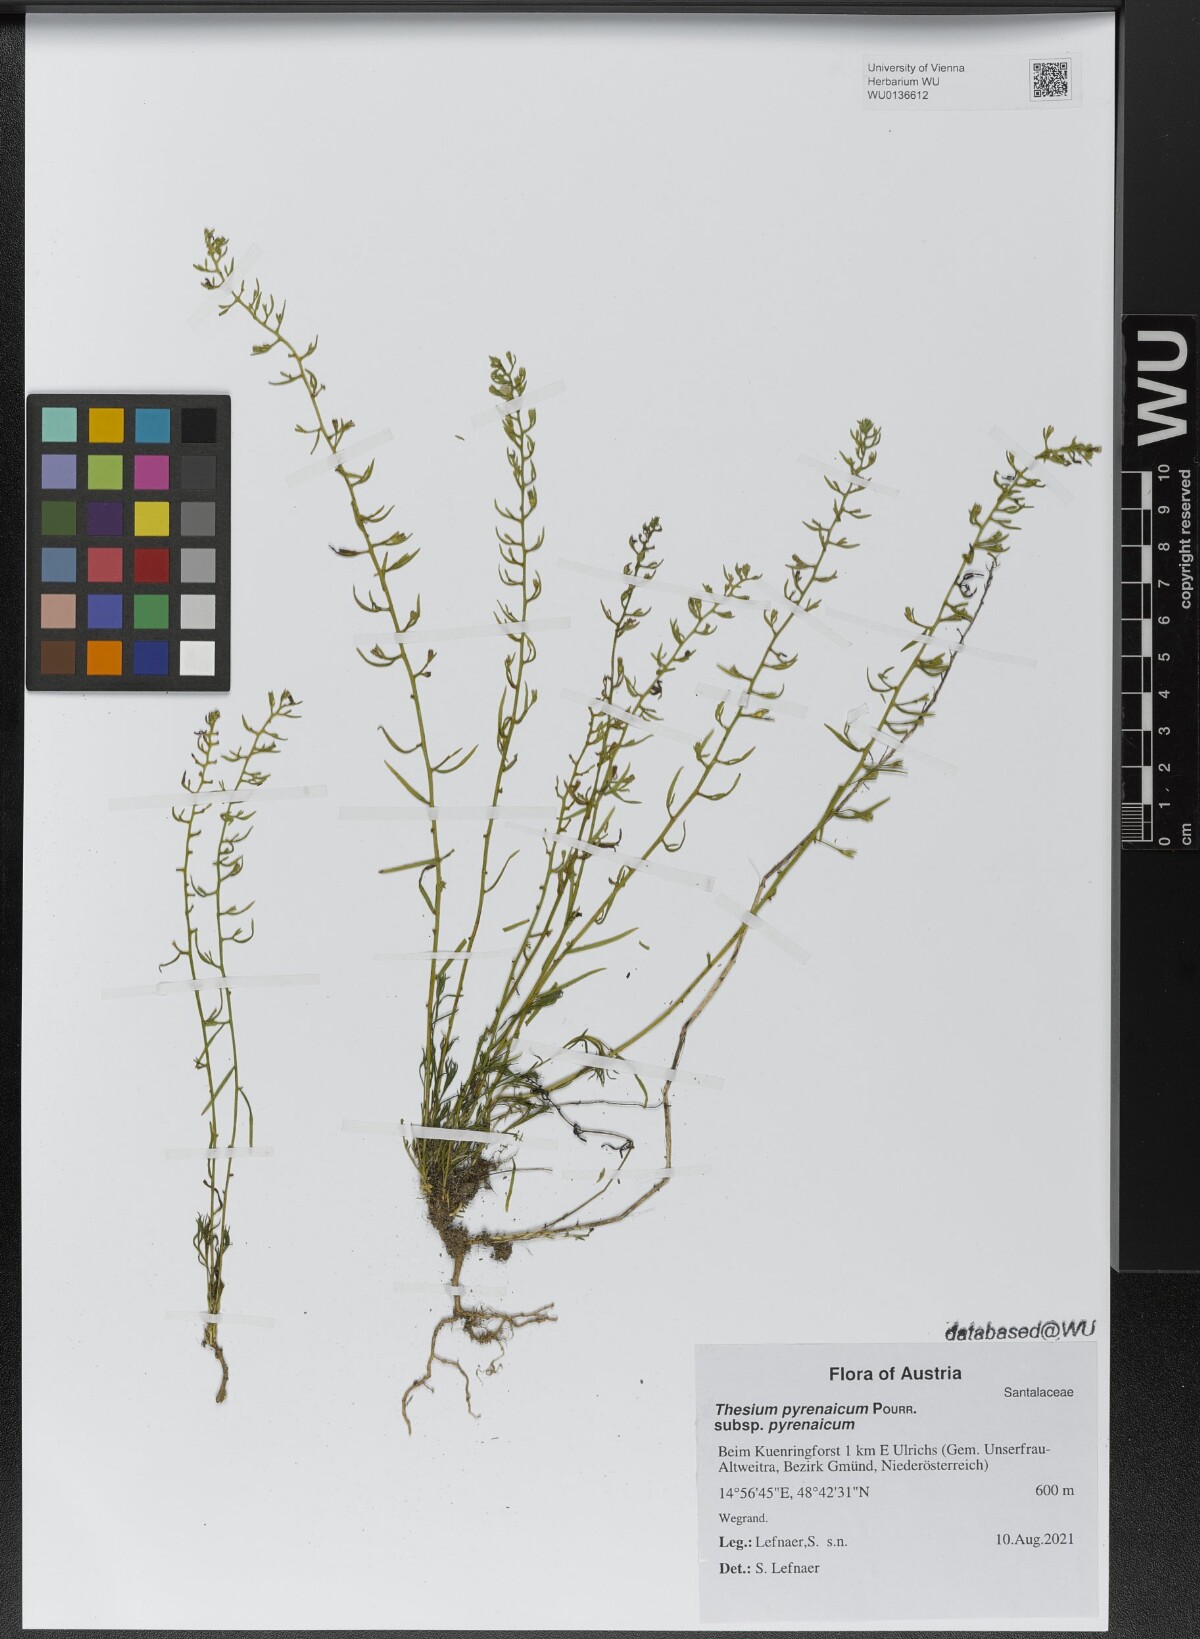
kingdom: Plantae
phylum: Tracheophyta
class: Magnoliopsida
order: Santalales
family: Thesiaceae
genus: Thesium
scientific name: Thesium pyrenaicum
